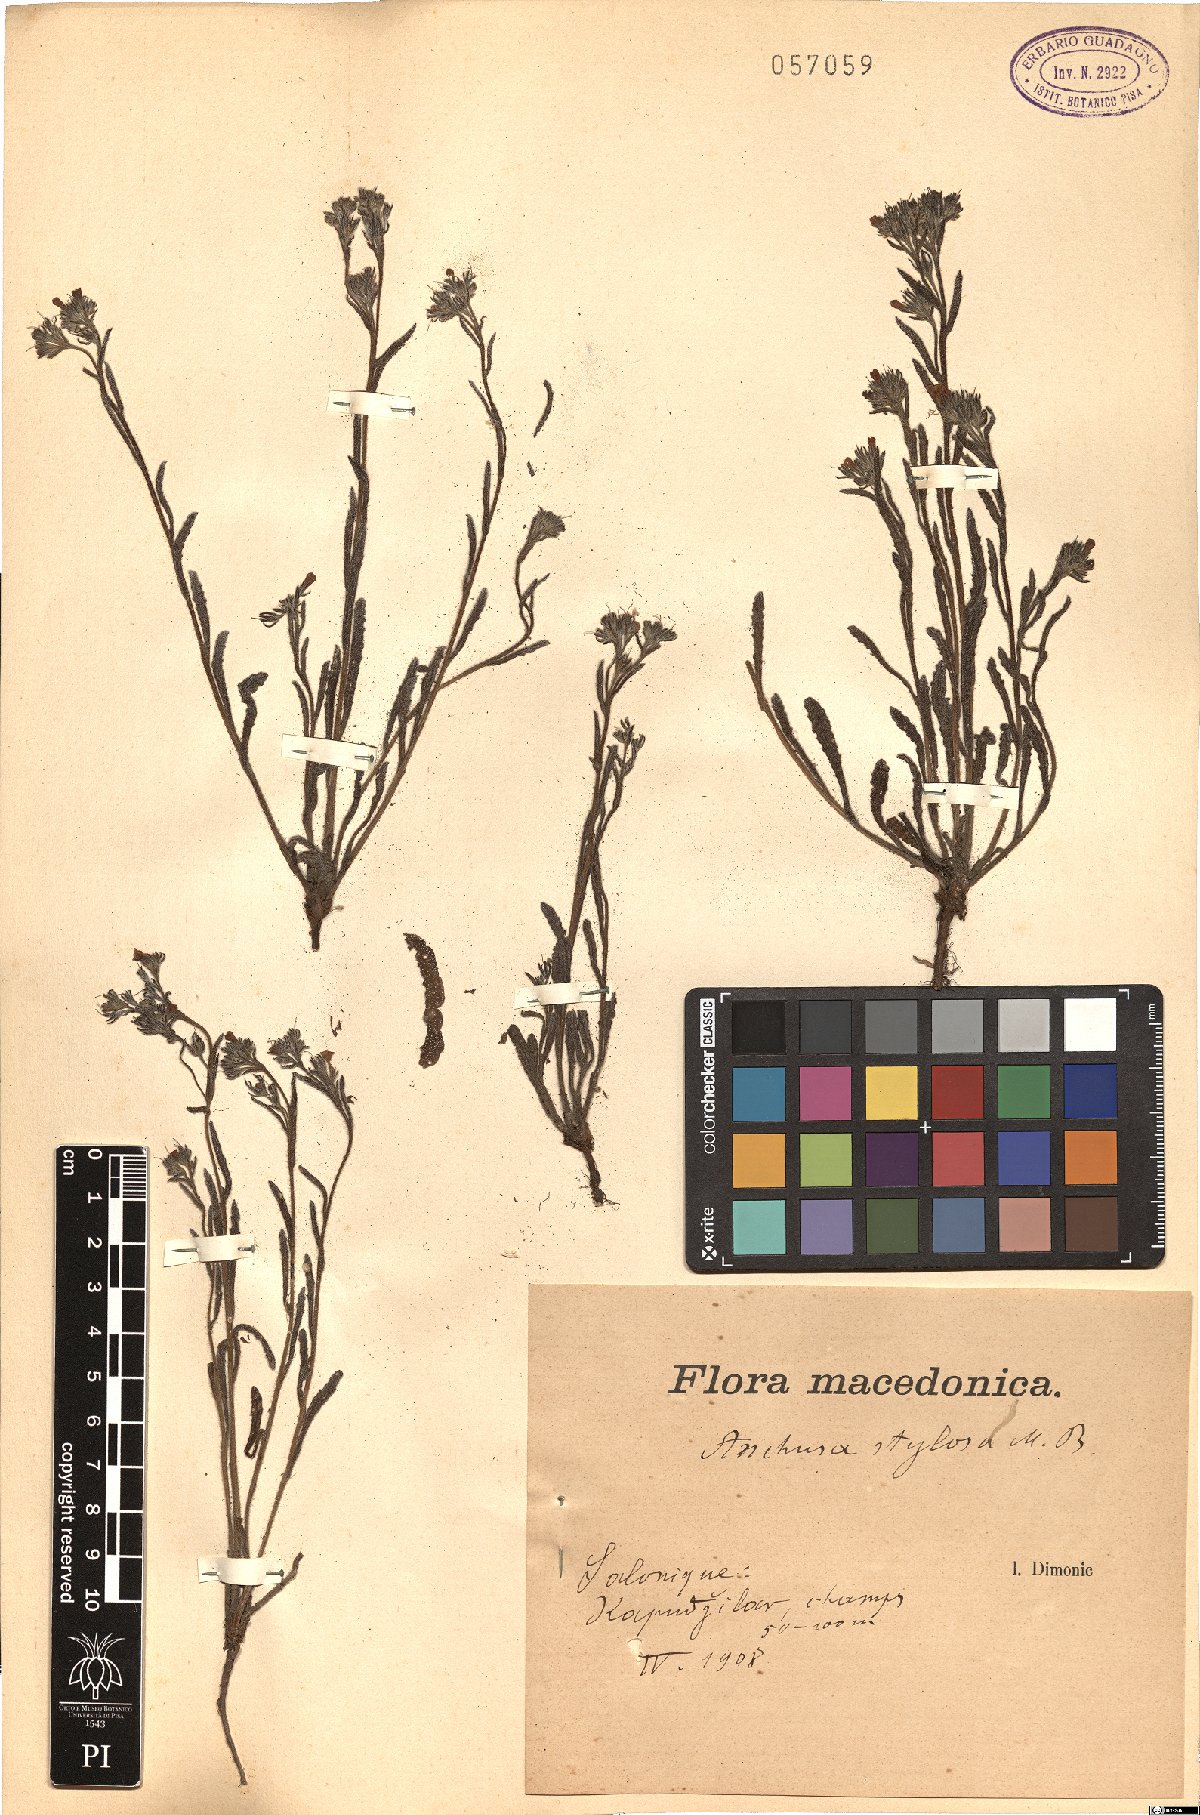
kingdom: Plantae
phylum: Tracheophyta
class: Magnoliopsida
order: Boraginales
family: Boraginaceae
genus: Anchusa
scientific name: Anchusa stylosa
